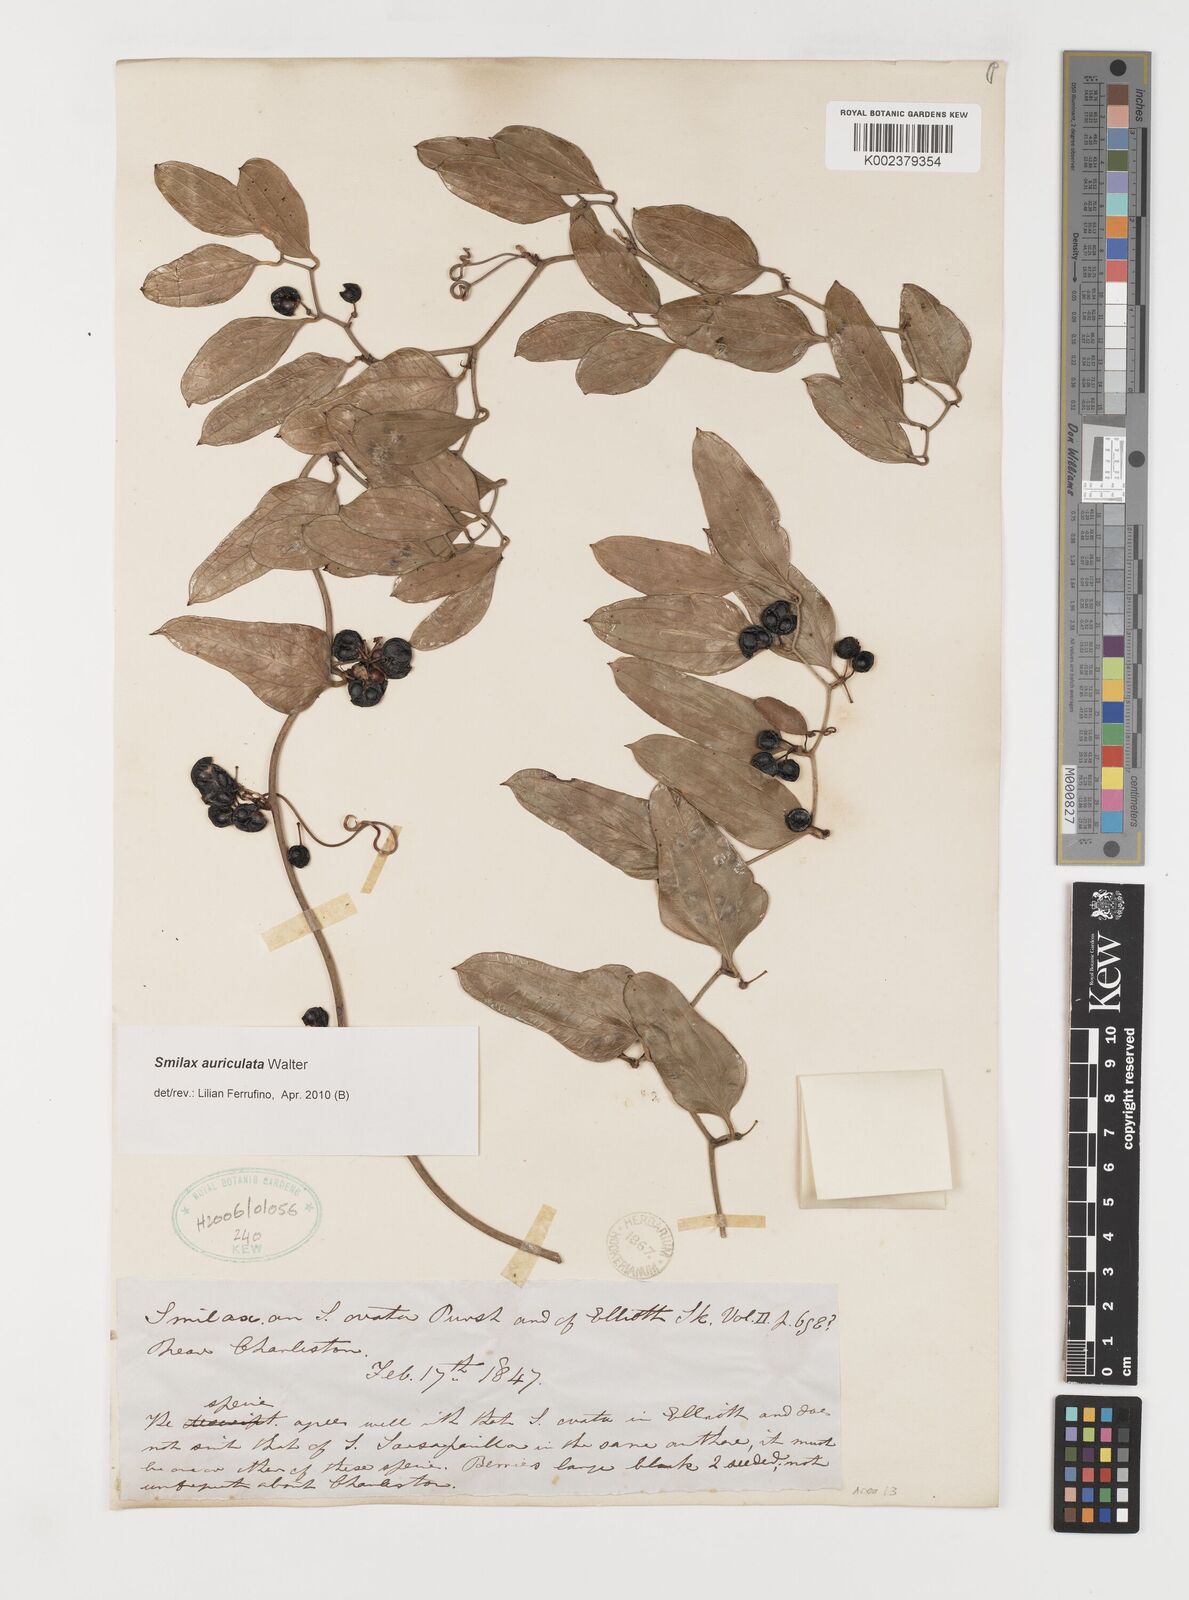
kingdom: Plantae
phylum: Tracheophyta
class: Liliopsida
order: Liliales
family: Smilacaceae
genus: Smilax
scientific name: Smilax auriculata
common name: Wild bamboo
